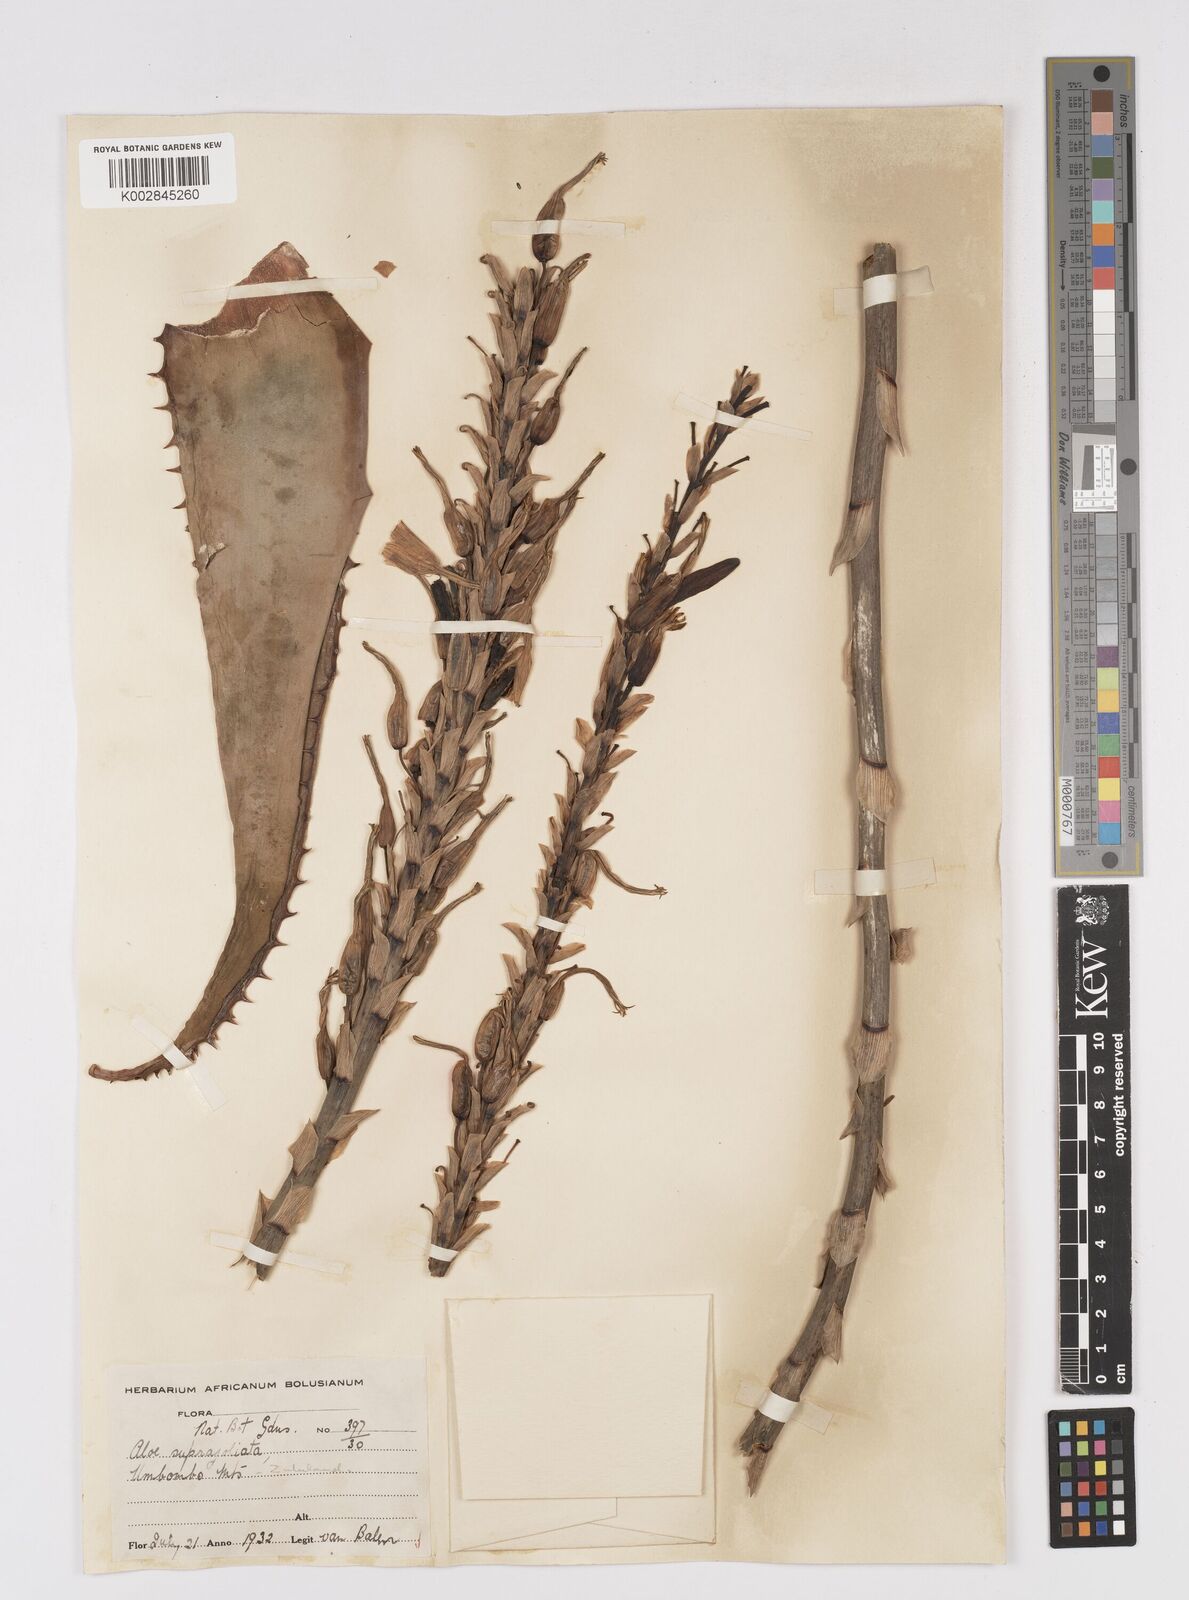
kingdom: Plantae
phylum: Tracheophyta
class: Liliopsida
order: Asparagales
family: Asphodelaceae
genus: Aloe
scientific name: Aloe suprafoliata
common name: Book aloe
